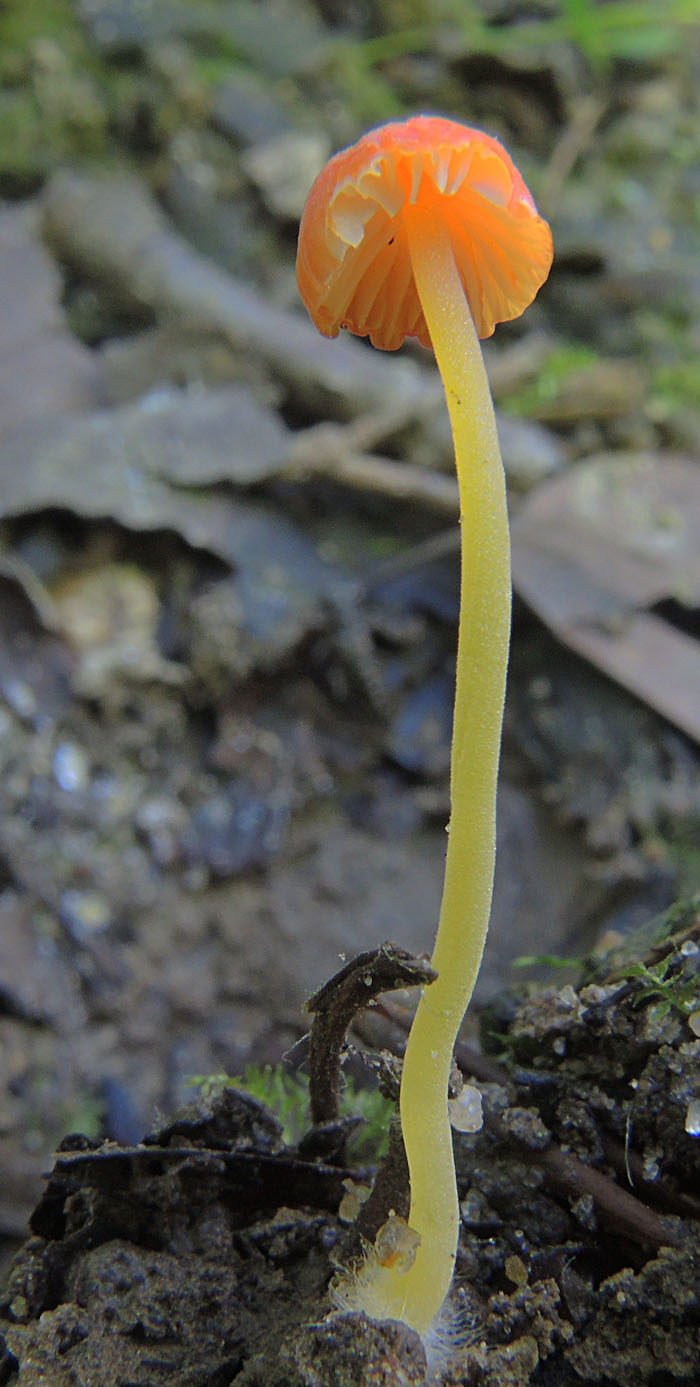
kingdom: Fungi
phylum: Basidiomycota
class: Agaricomycetes
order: Agaricales
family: Mycenaceae
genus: Mycena
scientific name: Mycena acicula
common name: orange huesvamp
